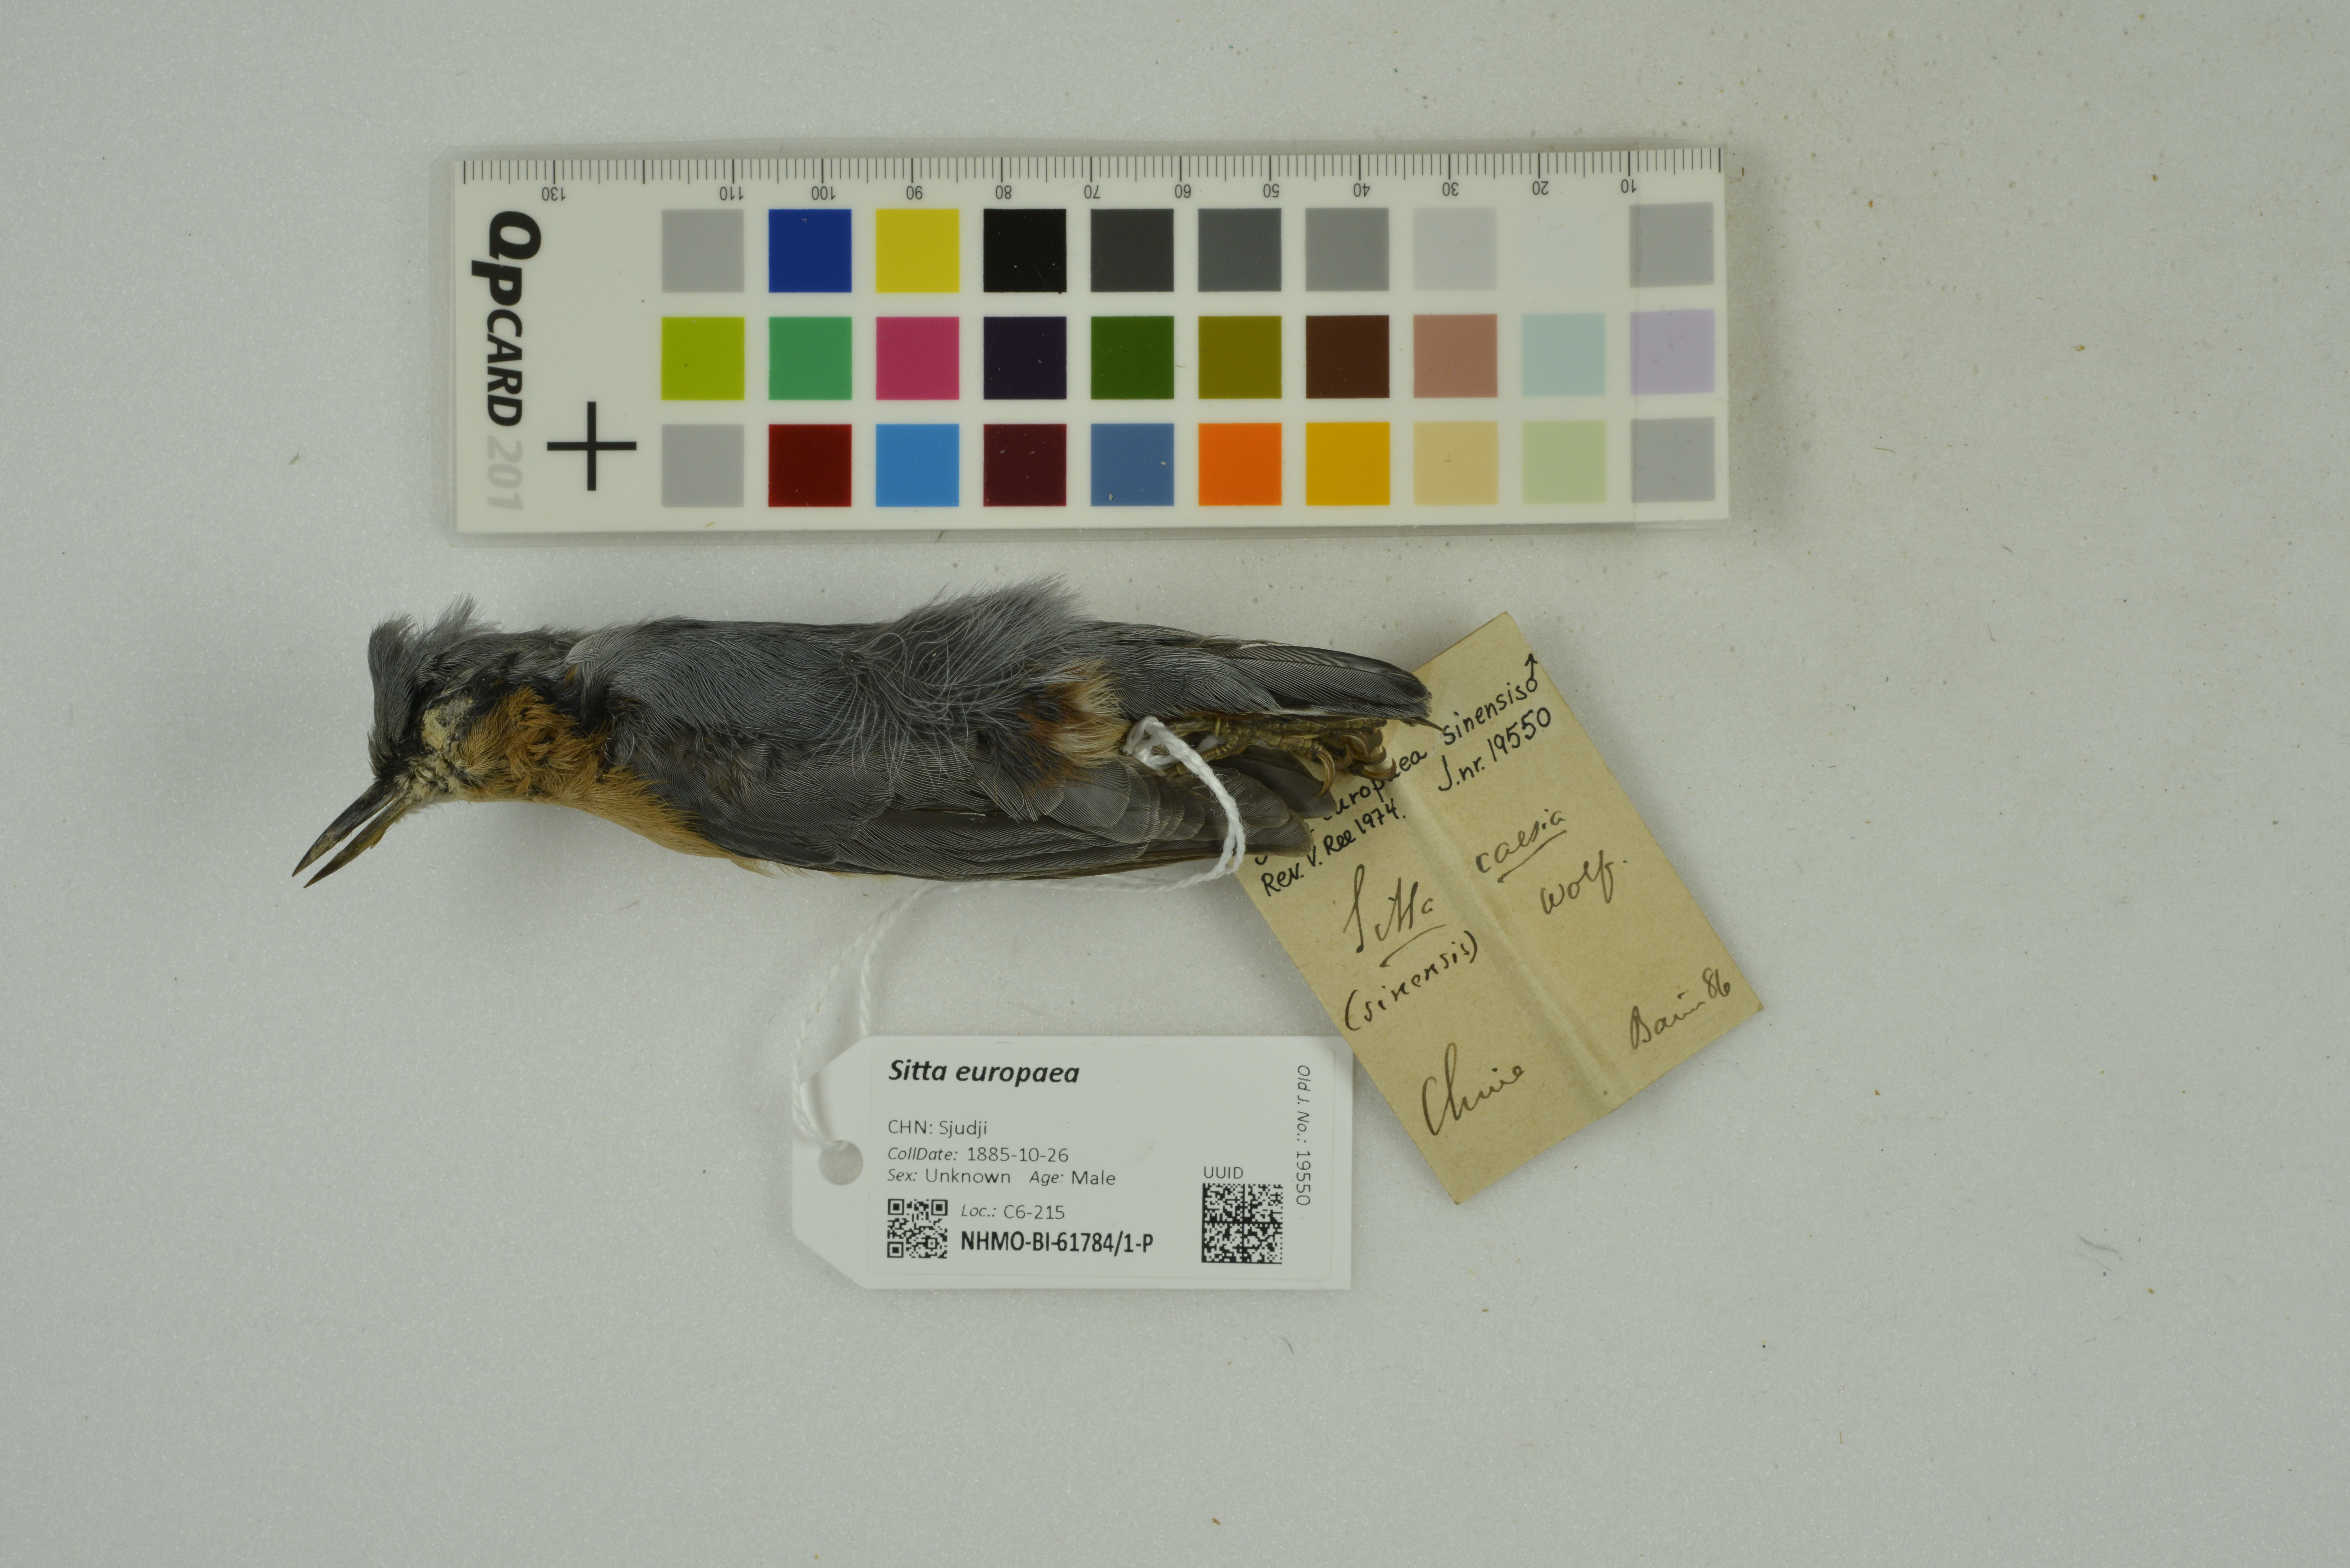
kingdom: Animalia
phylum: Chordata
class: Aves
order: Passeriformes
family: Sittidae
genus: Sitta
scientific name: Sitta europaea
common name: Eurasian nuthatch
